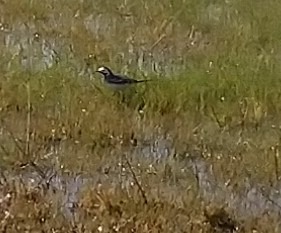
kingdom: Animalia
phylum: Chordata
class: Aves
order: Passeriformes
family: Motacillidae
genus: Motacilla
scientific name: Motacilla alba
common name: Hvid vipstjert
